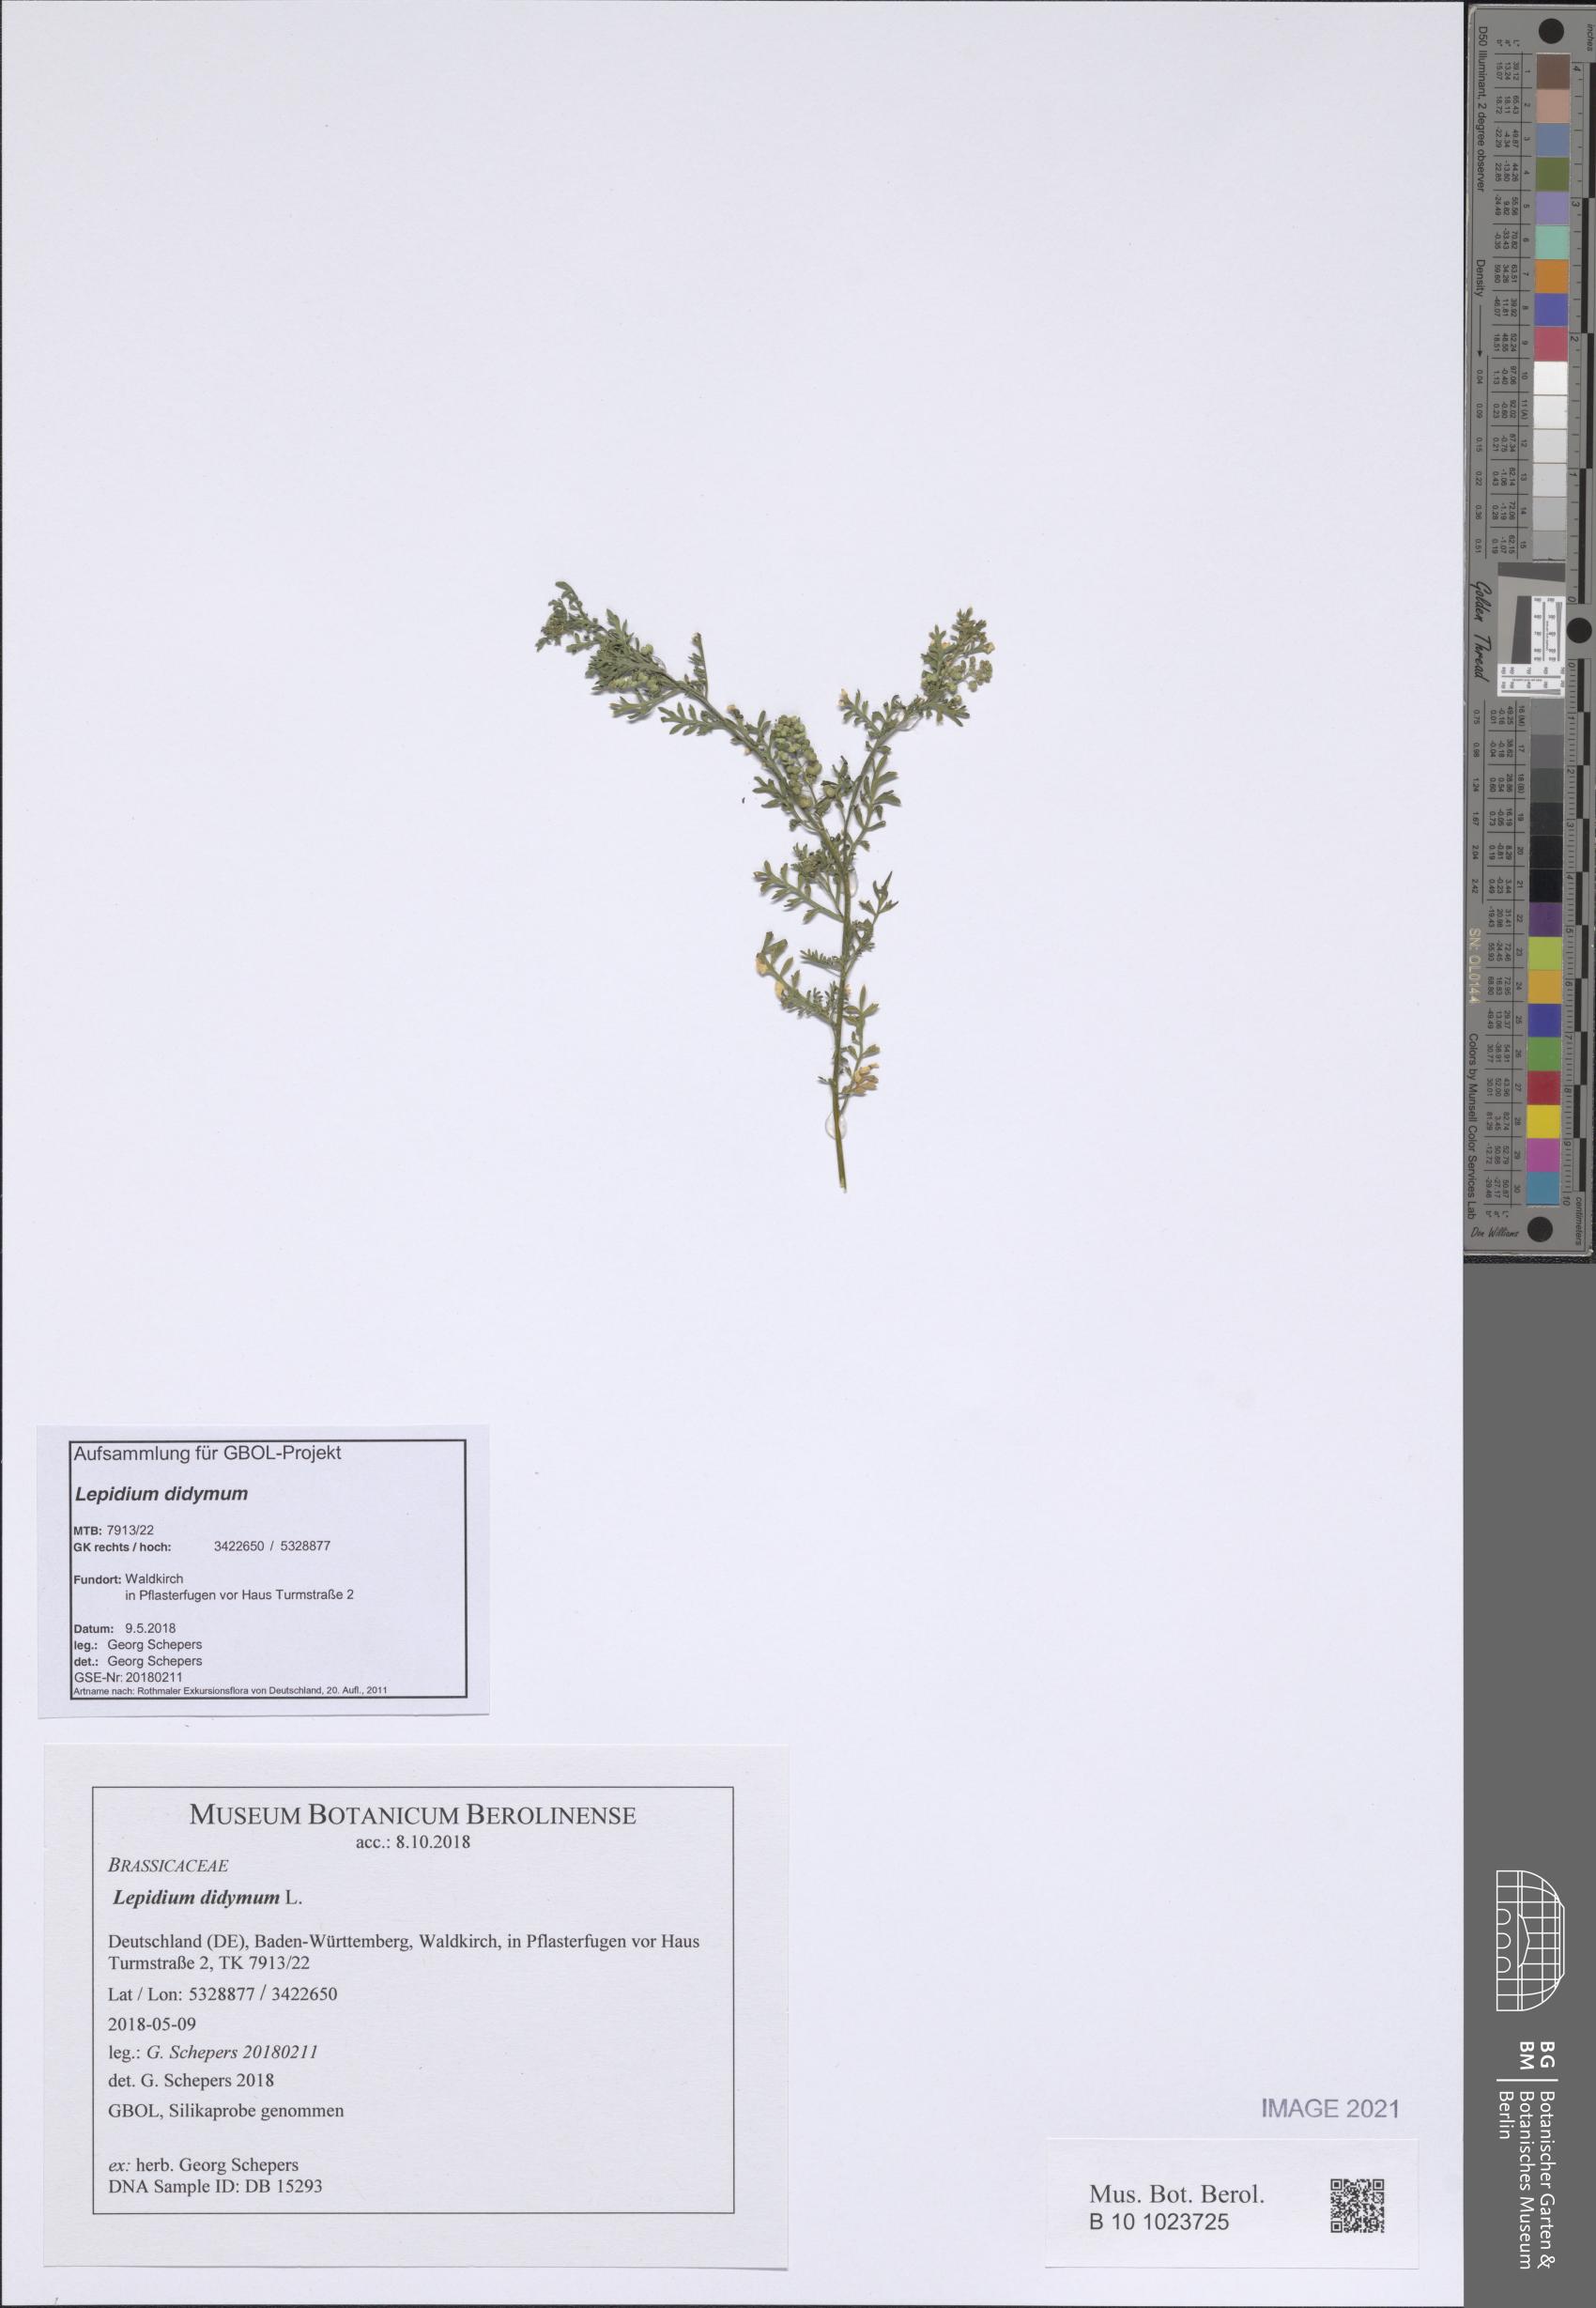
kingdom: Plantae
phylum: Tracheophyta
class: Magnoliopsida
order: Brassicales
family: Brassicaceae
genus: Lepidium
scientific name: Lepidium didymum
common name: Lesser swinecress
